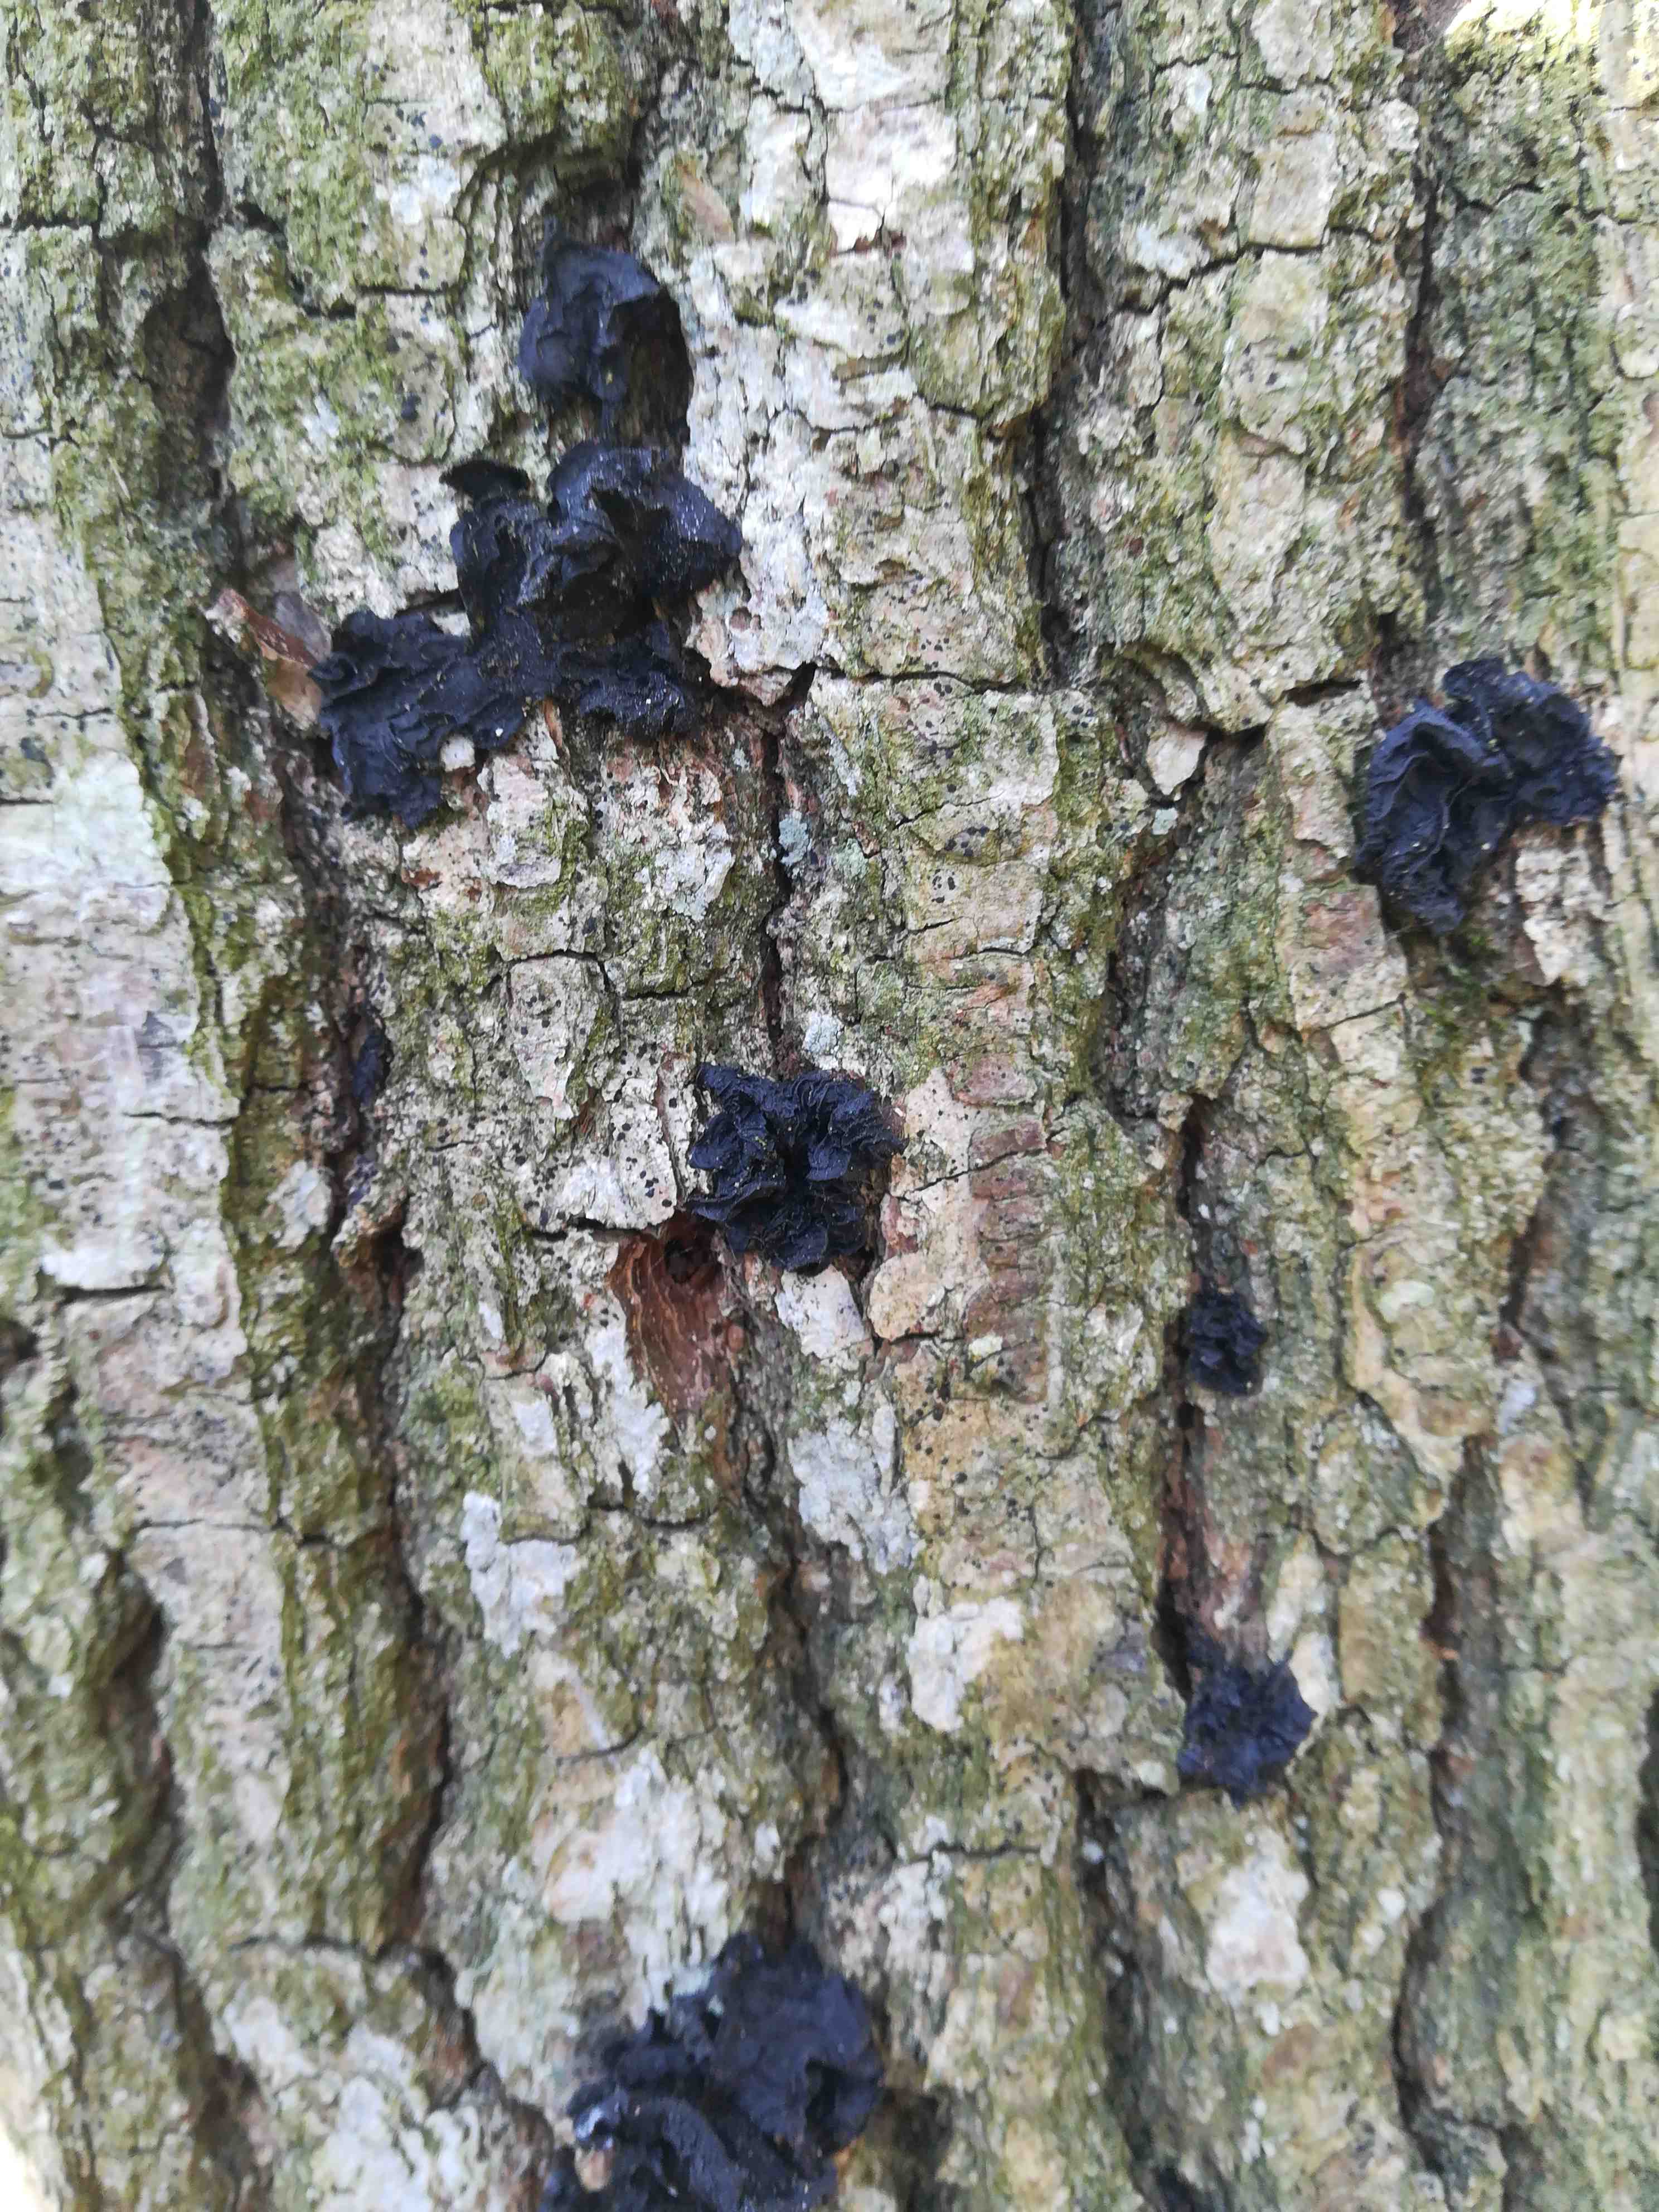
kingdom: Fungi
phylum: Basidiomycota
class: Agaricomycetes
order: Auriculariales
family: Auriculariaceae
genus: Exidia
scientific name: Exidia nigricans
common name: almindelig bævretop
